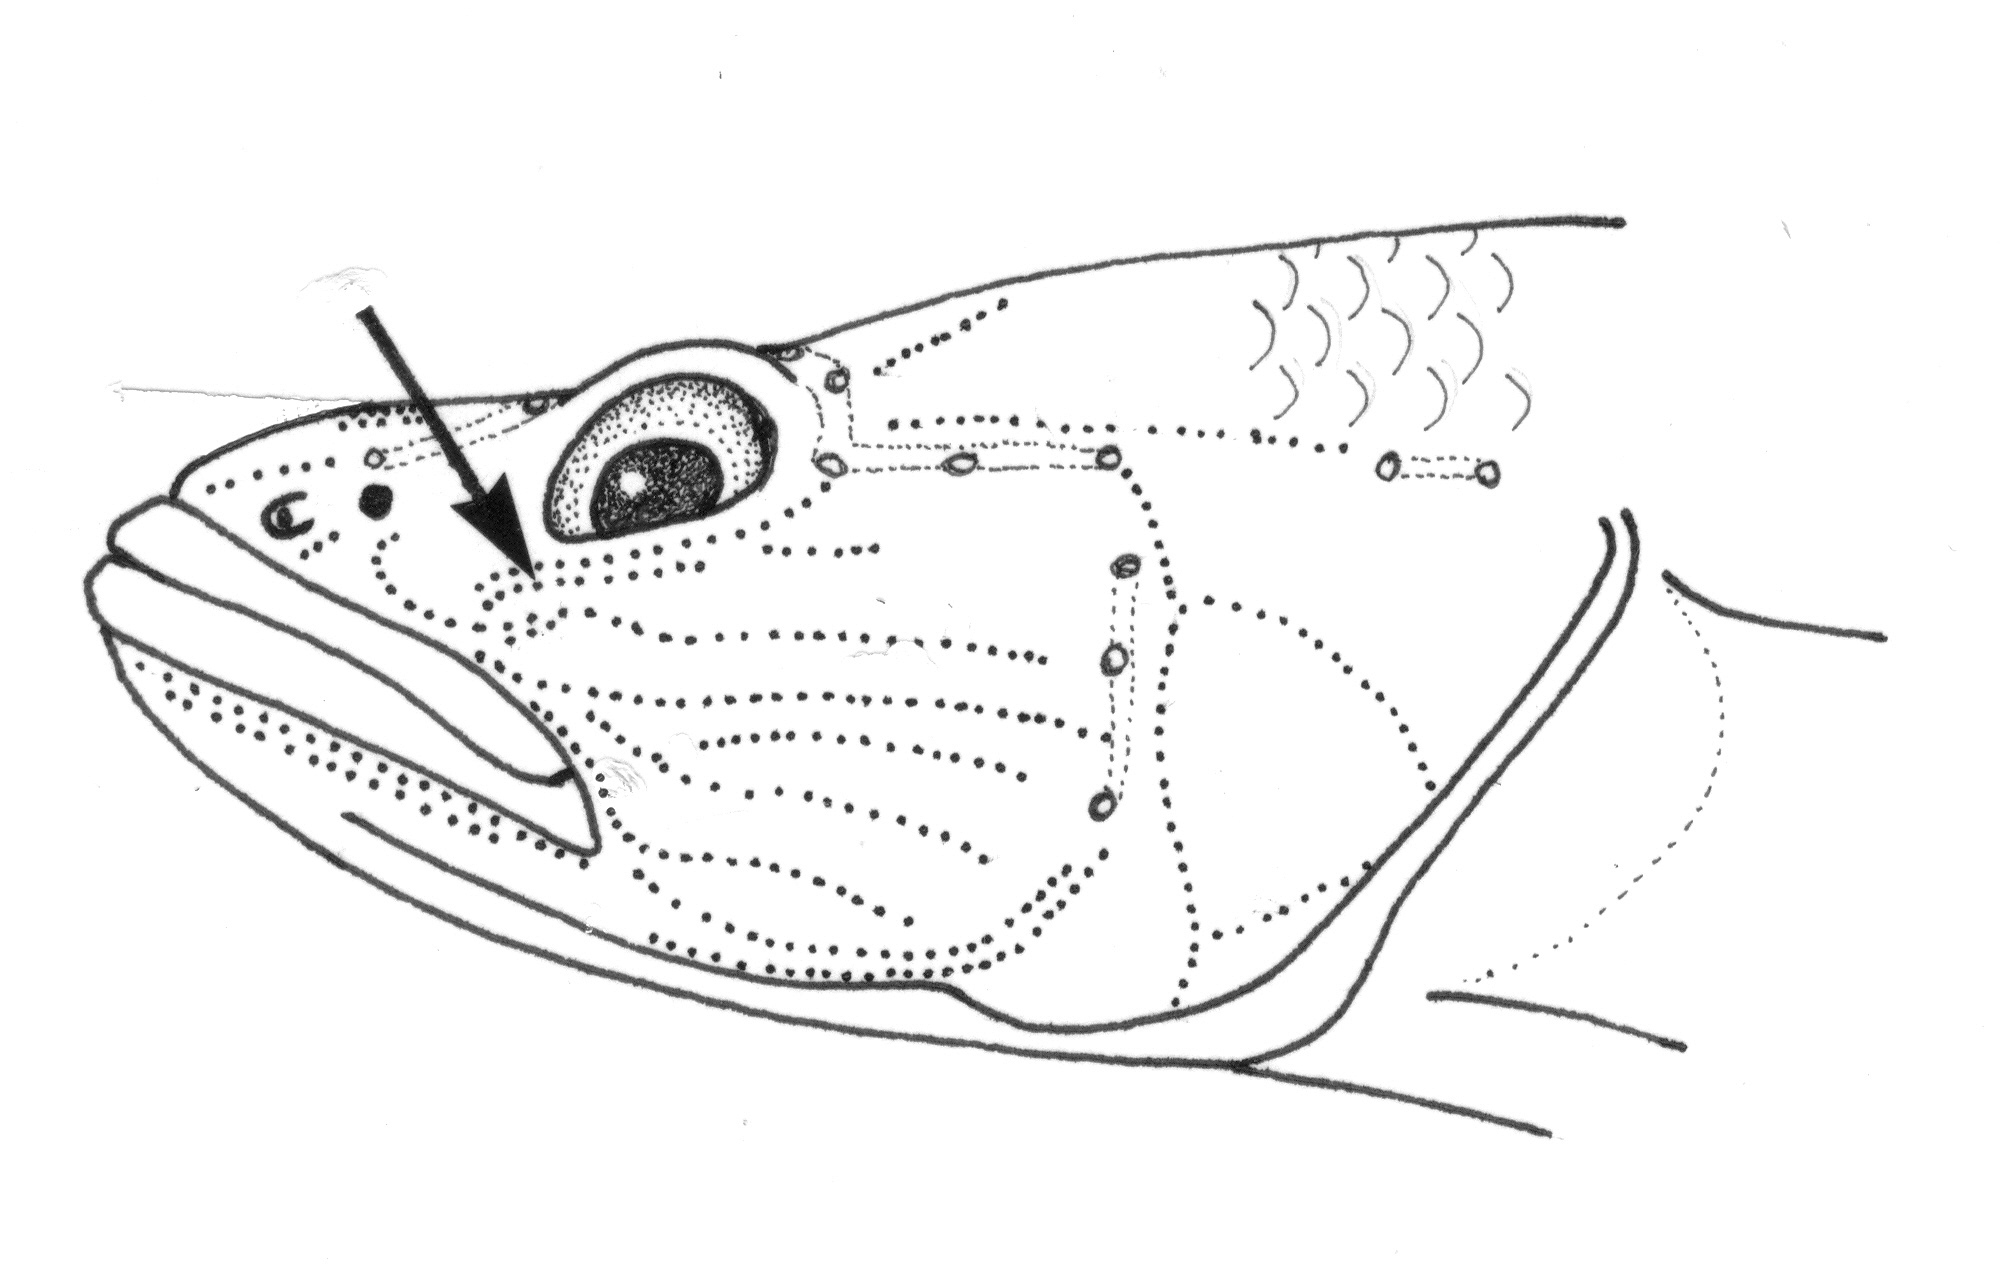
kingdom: Animalia
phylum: Chordata
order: Perciformes
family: Gobiidae
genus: Glossogobius
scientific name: Glossogobius callidus
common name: River goby
